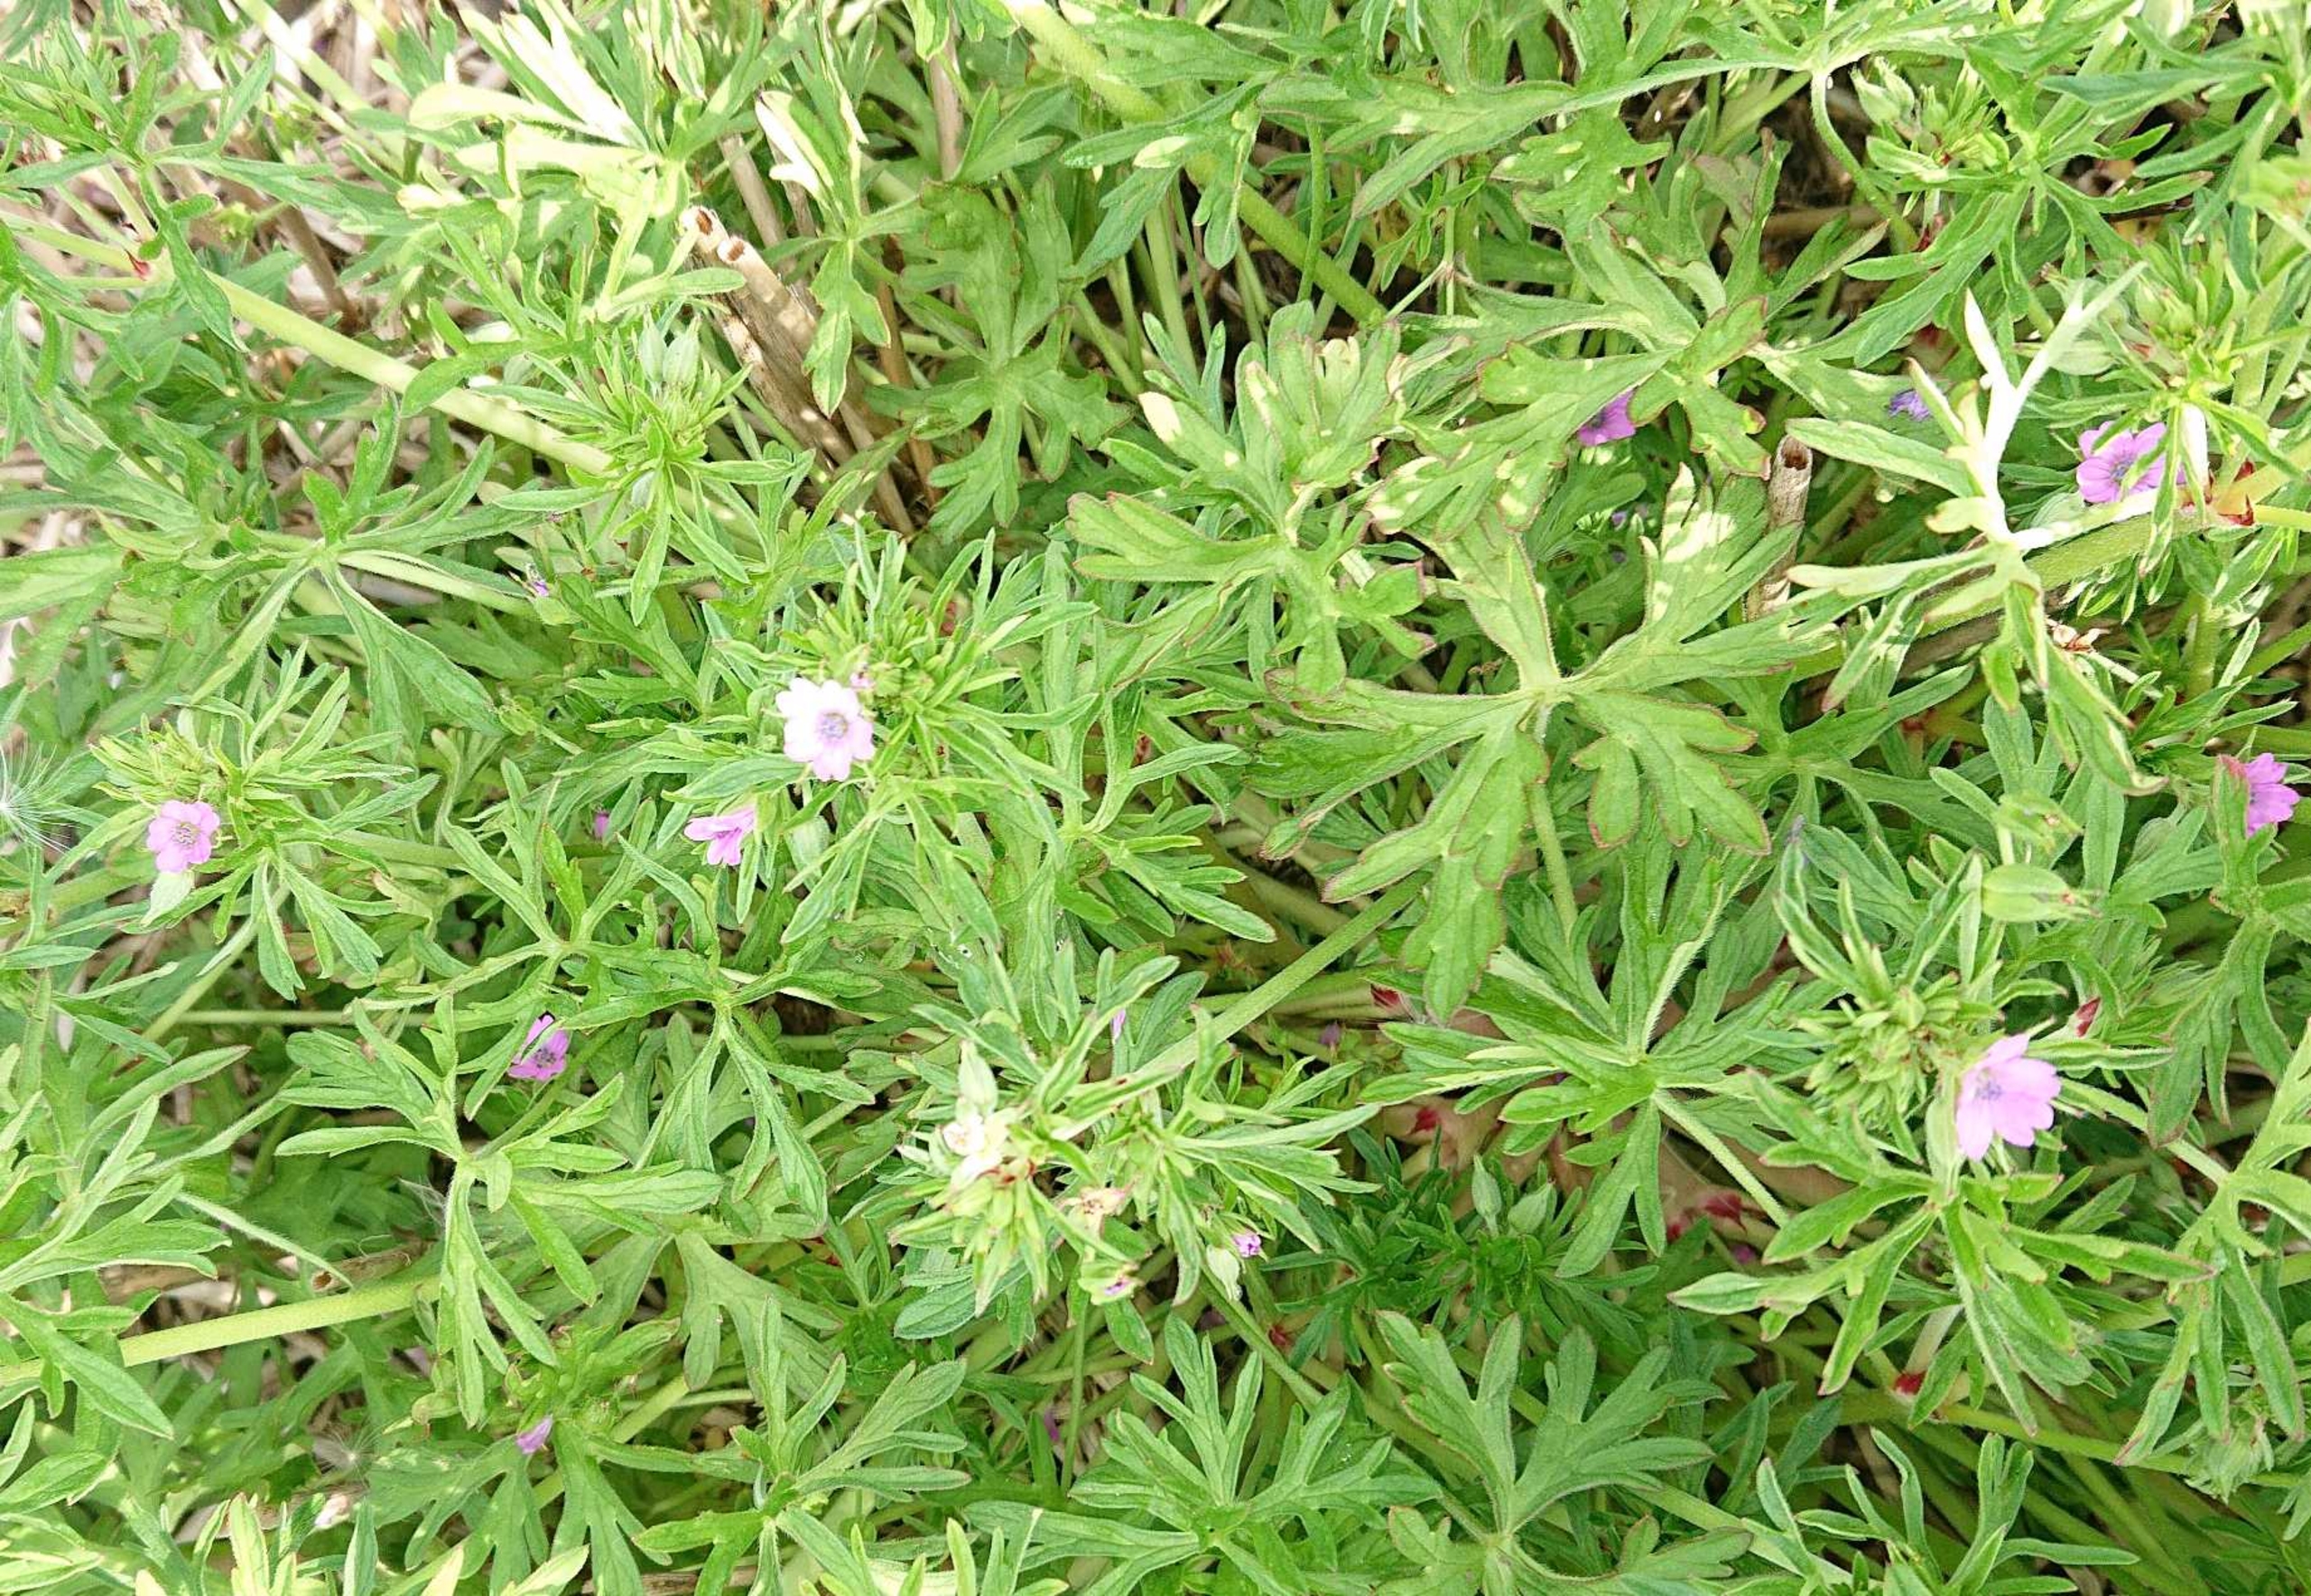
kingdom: Plantae
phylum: Tracheophyta
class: Magnoliopsida
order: Geraniales
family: Geraniaceae
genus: Geranium
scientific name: Geranium dissectum
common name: Kløftet storkenæb
